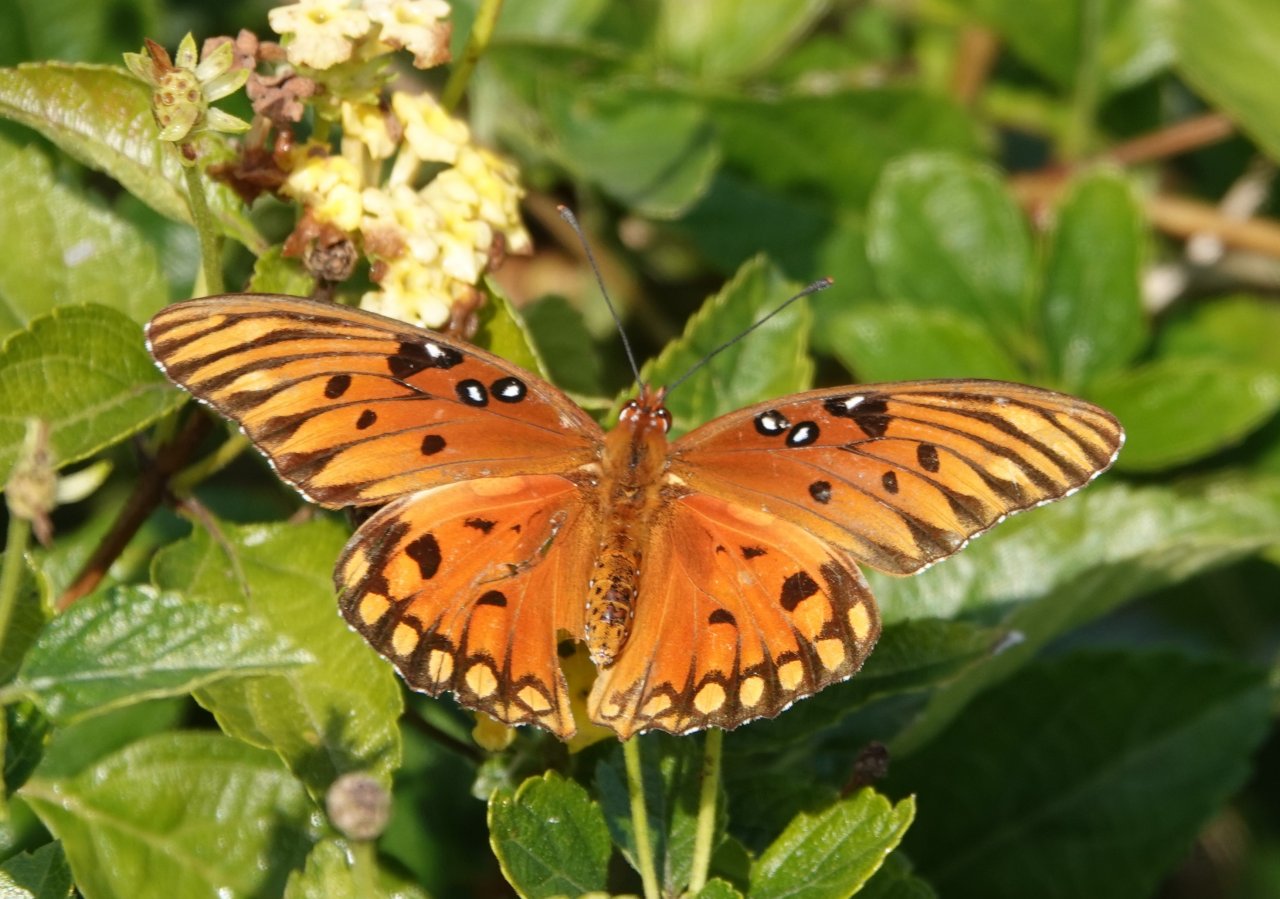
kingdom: Animalia
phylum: Arthropoda
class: Insecta
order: Lepidoptera
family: Nymphalidae
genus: Dione
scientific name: Dione vanillae
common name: Gulf Fritillary
